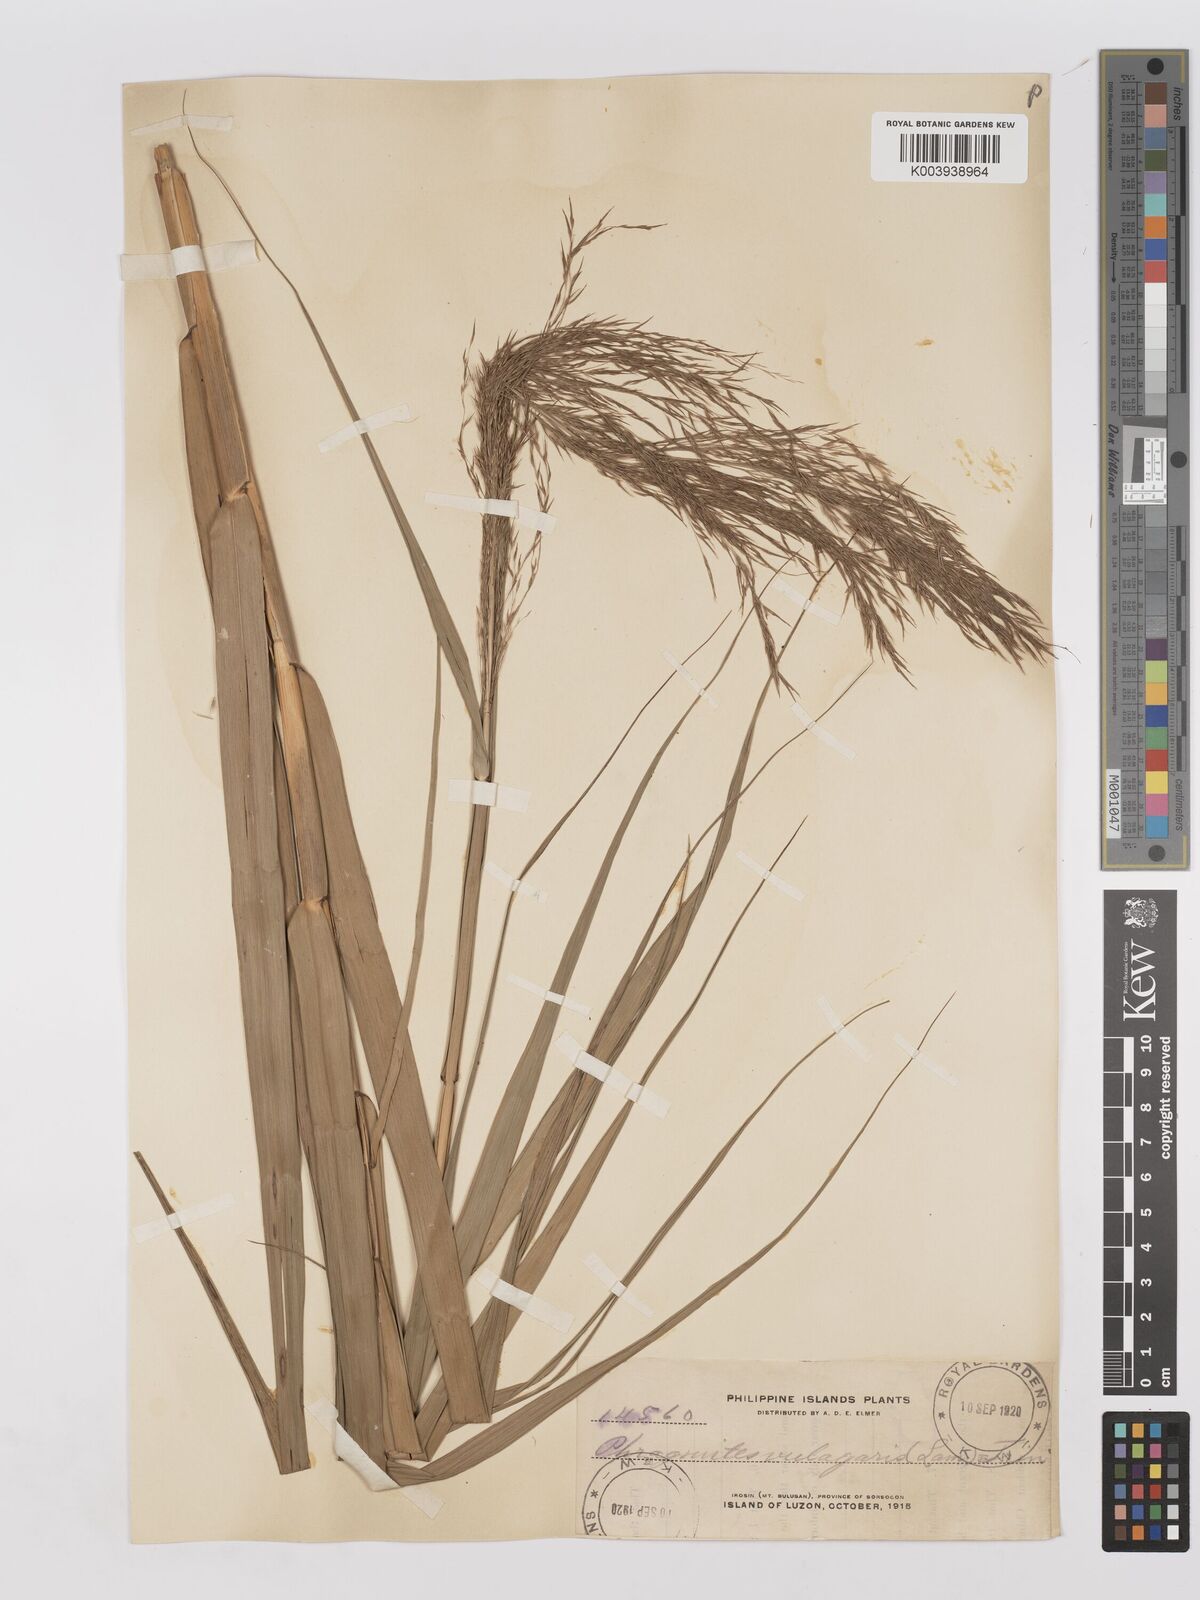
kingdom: Plantae
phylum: Tracheophyta
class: Liliopsida
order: Poales
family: Poaceae
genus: Phragmites
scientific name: Phragmites karka
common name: Tropical reed
